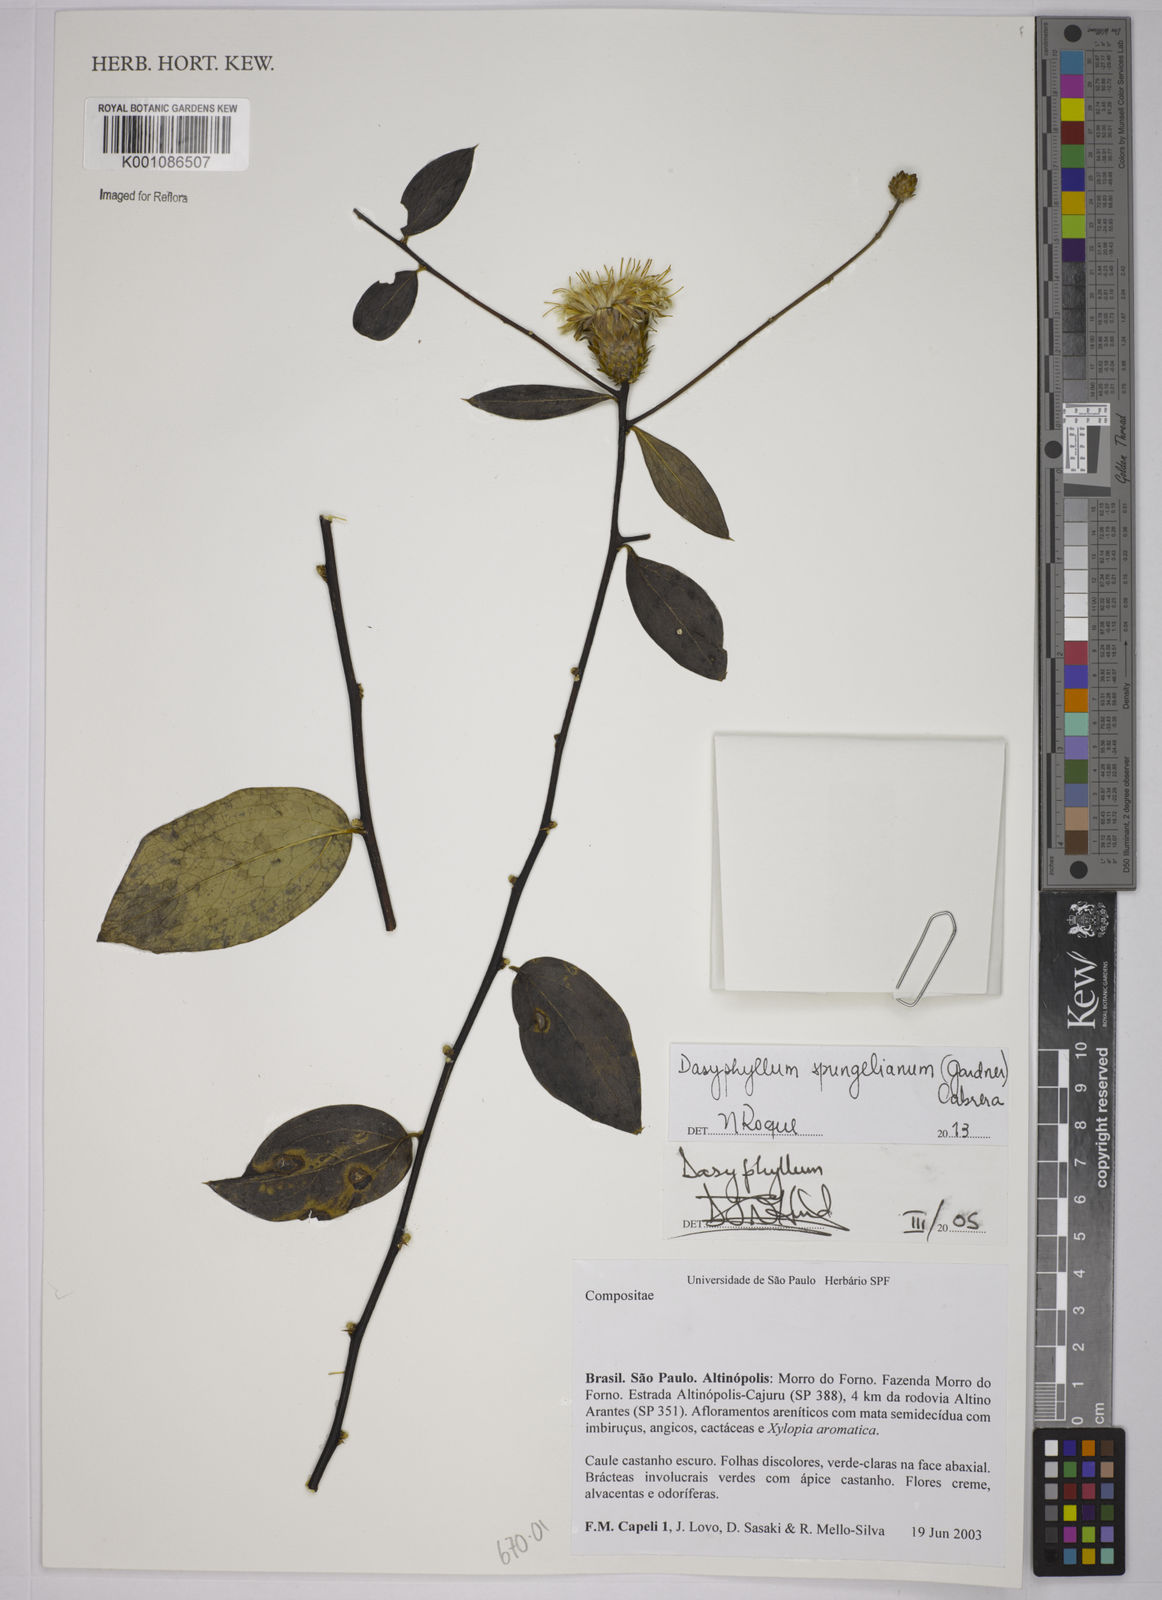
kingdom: Plantae
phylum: Tracheophyta
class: Magnoliopsida
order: Asterales
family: Asteraceae
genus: Dasyphyllum
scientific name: Dasyphyllum sprengelianum
